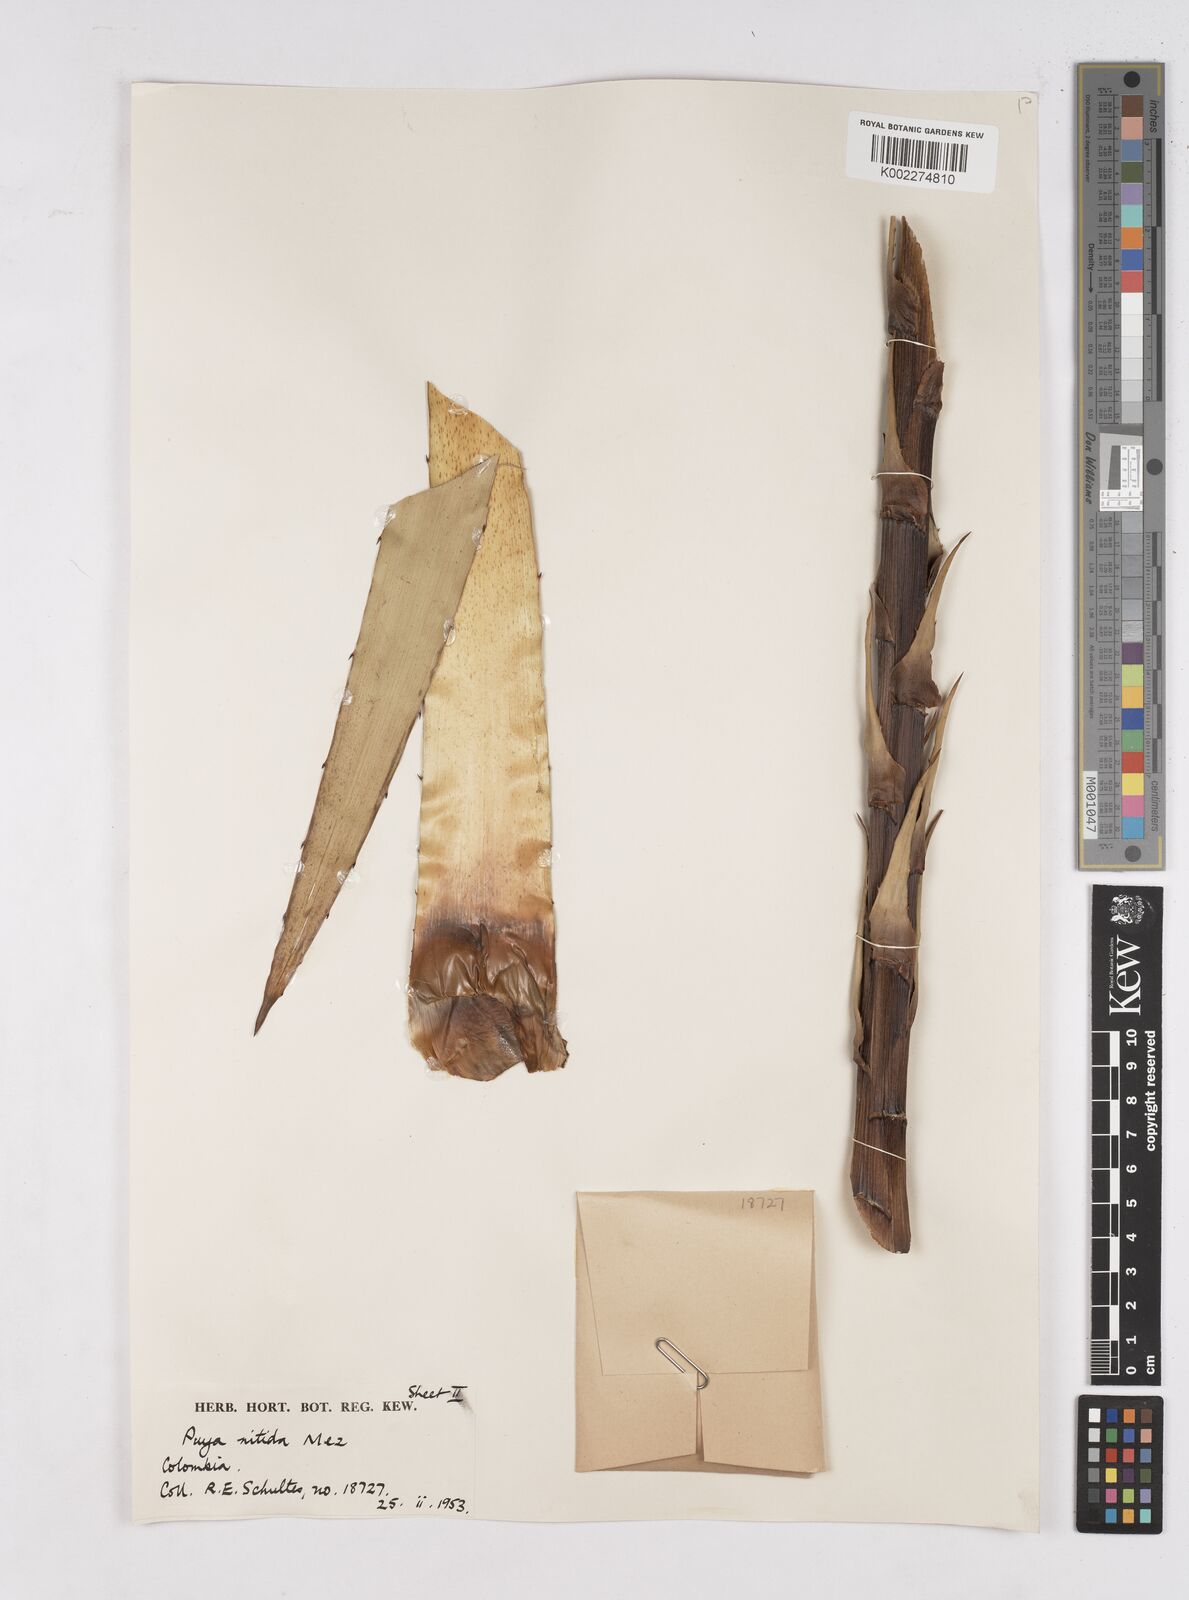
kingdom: Plantae
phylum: Tracheophyta
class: Liliopsida
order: Poales
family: Bromeliaceae
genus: Puya
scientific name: Puya nitida
